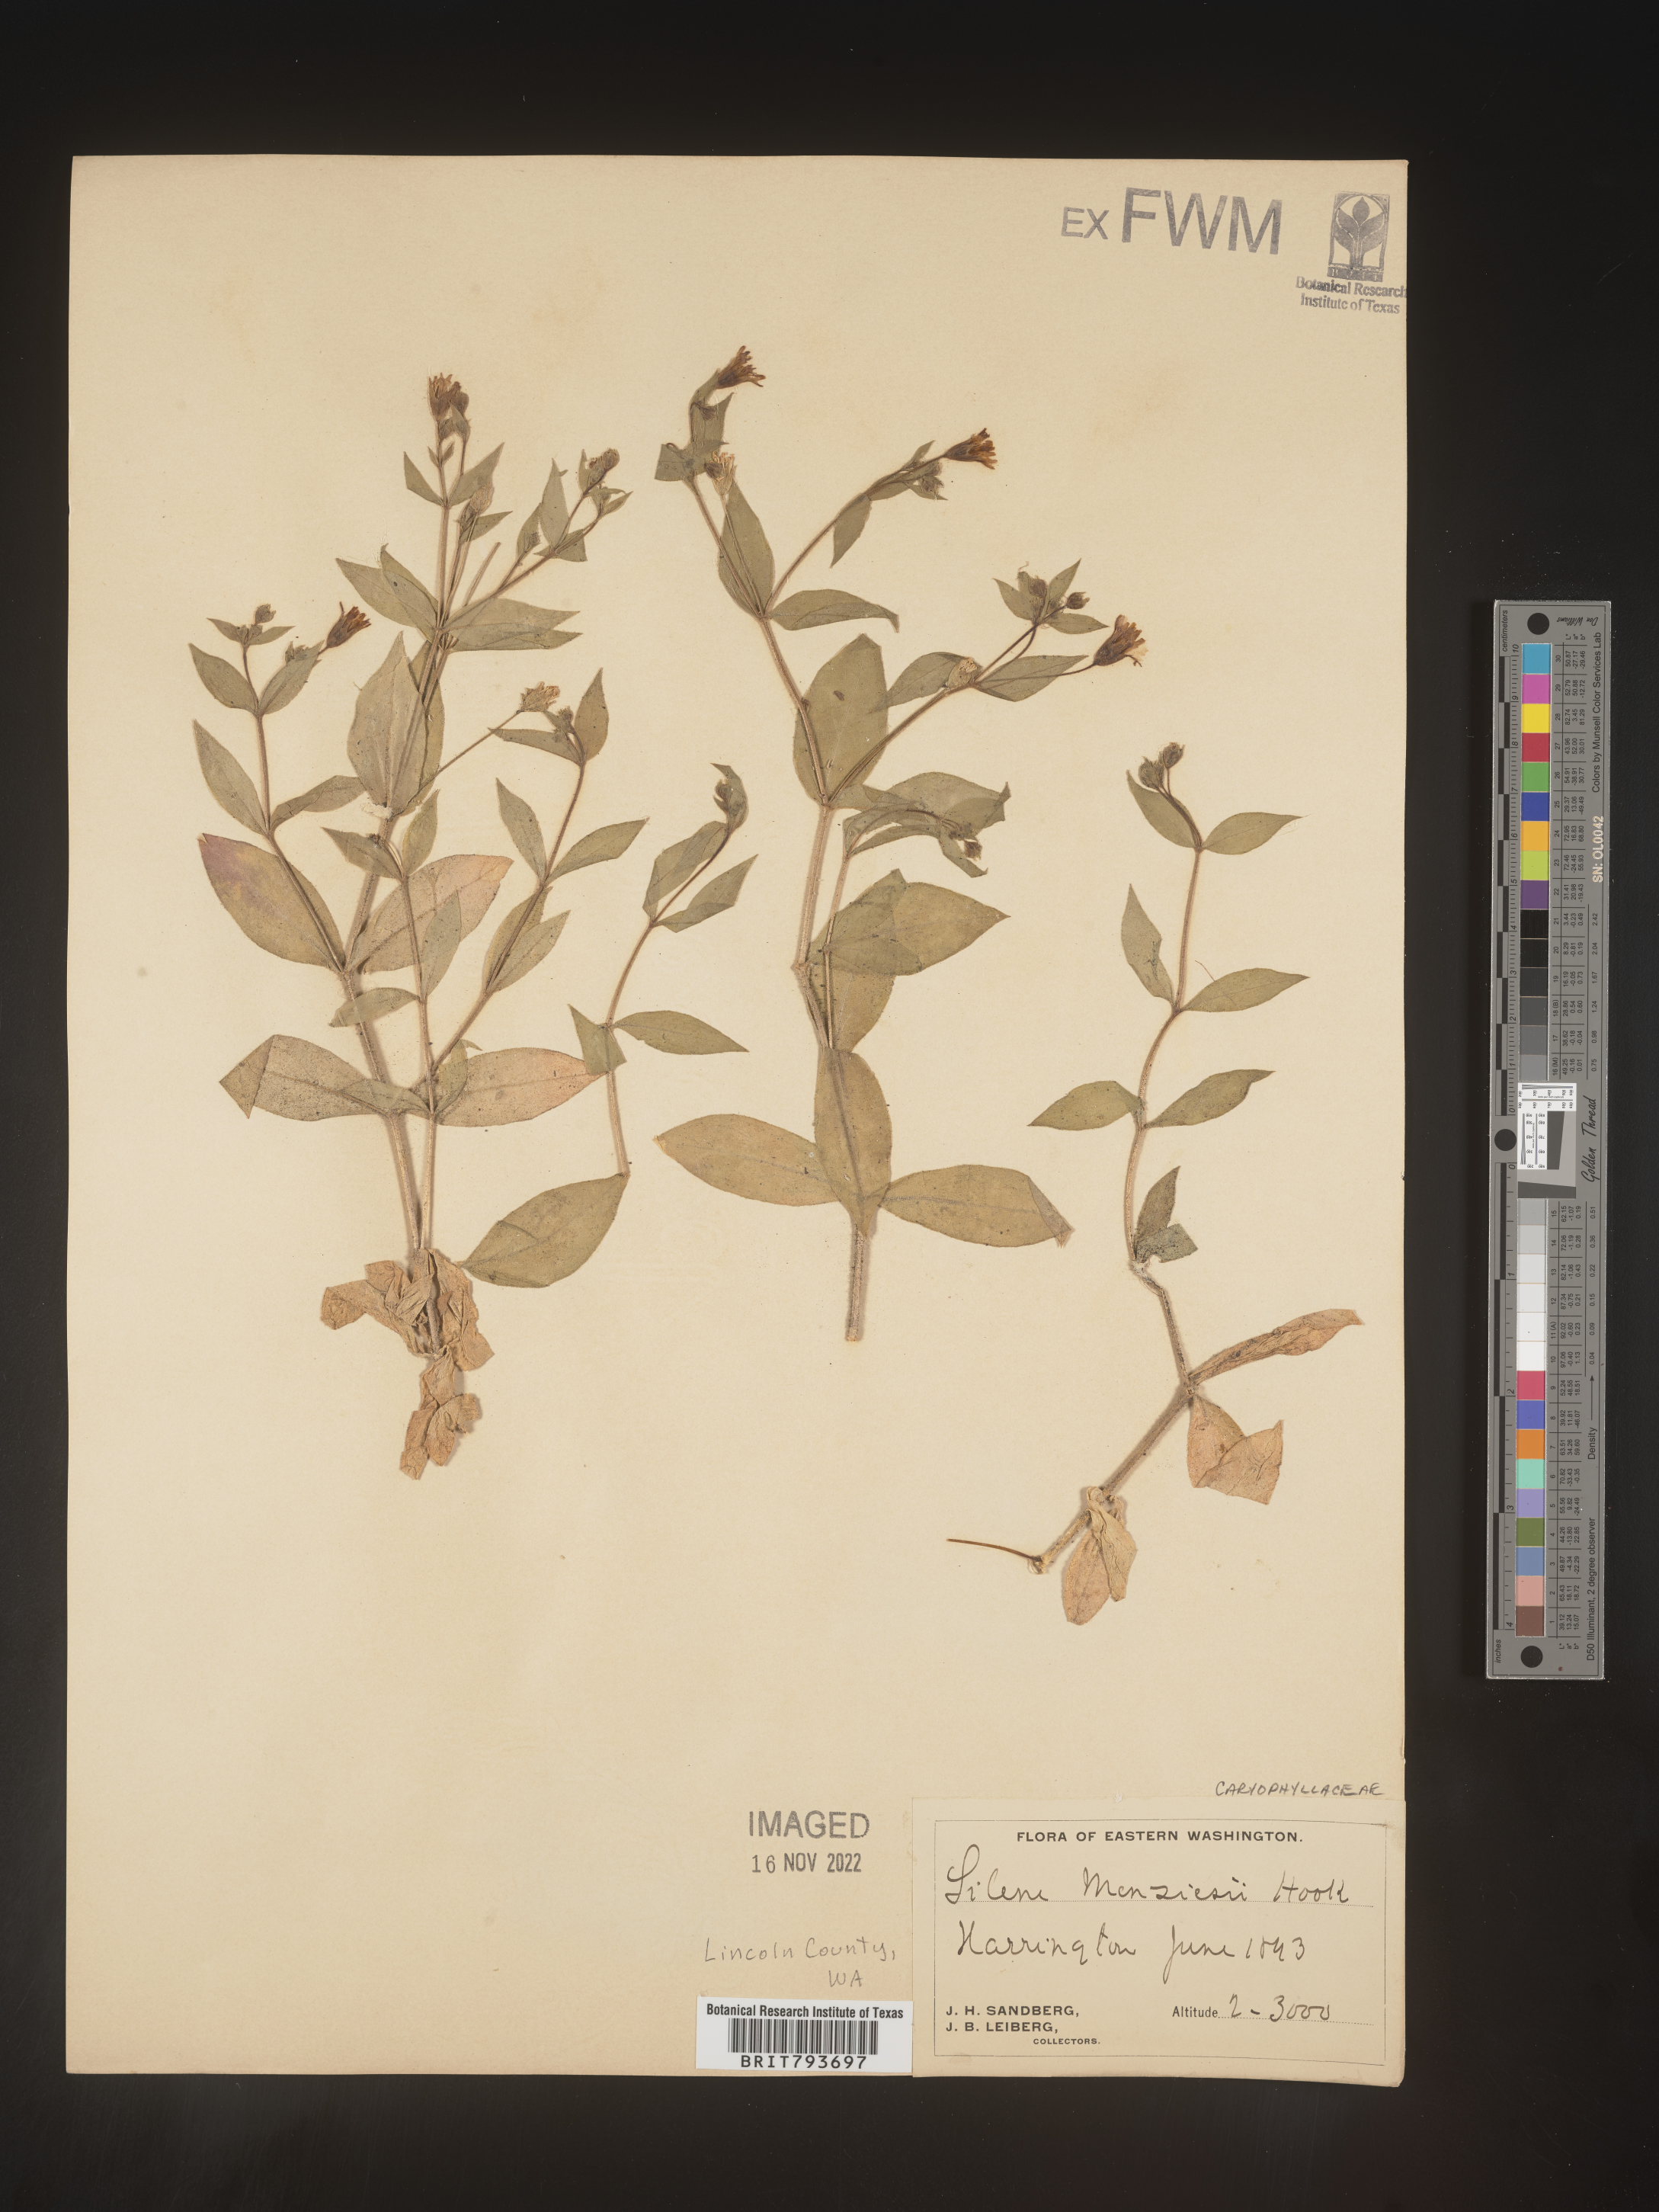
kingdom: Plantae
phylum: Tracheophyta
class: Magnoliopsida
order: Caryophyllales
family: Caryophyllaceae
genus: Silene
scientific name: Silene menziesii
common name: Menzies's catchfly
